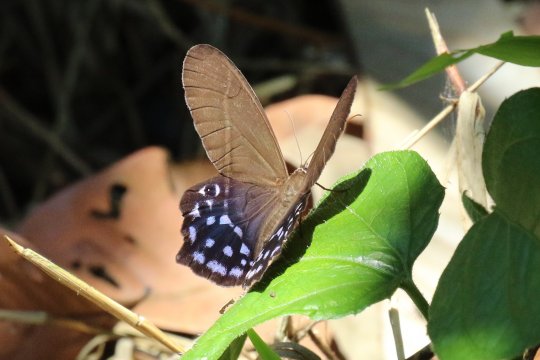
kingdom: Animalia
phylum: Arthropoda
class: Insecta
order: Lepidoptera
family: Nymphalidae
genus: Pierella
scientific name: Pierella dracontis
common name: Glassy Pierella
